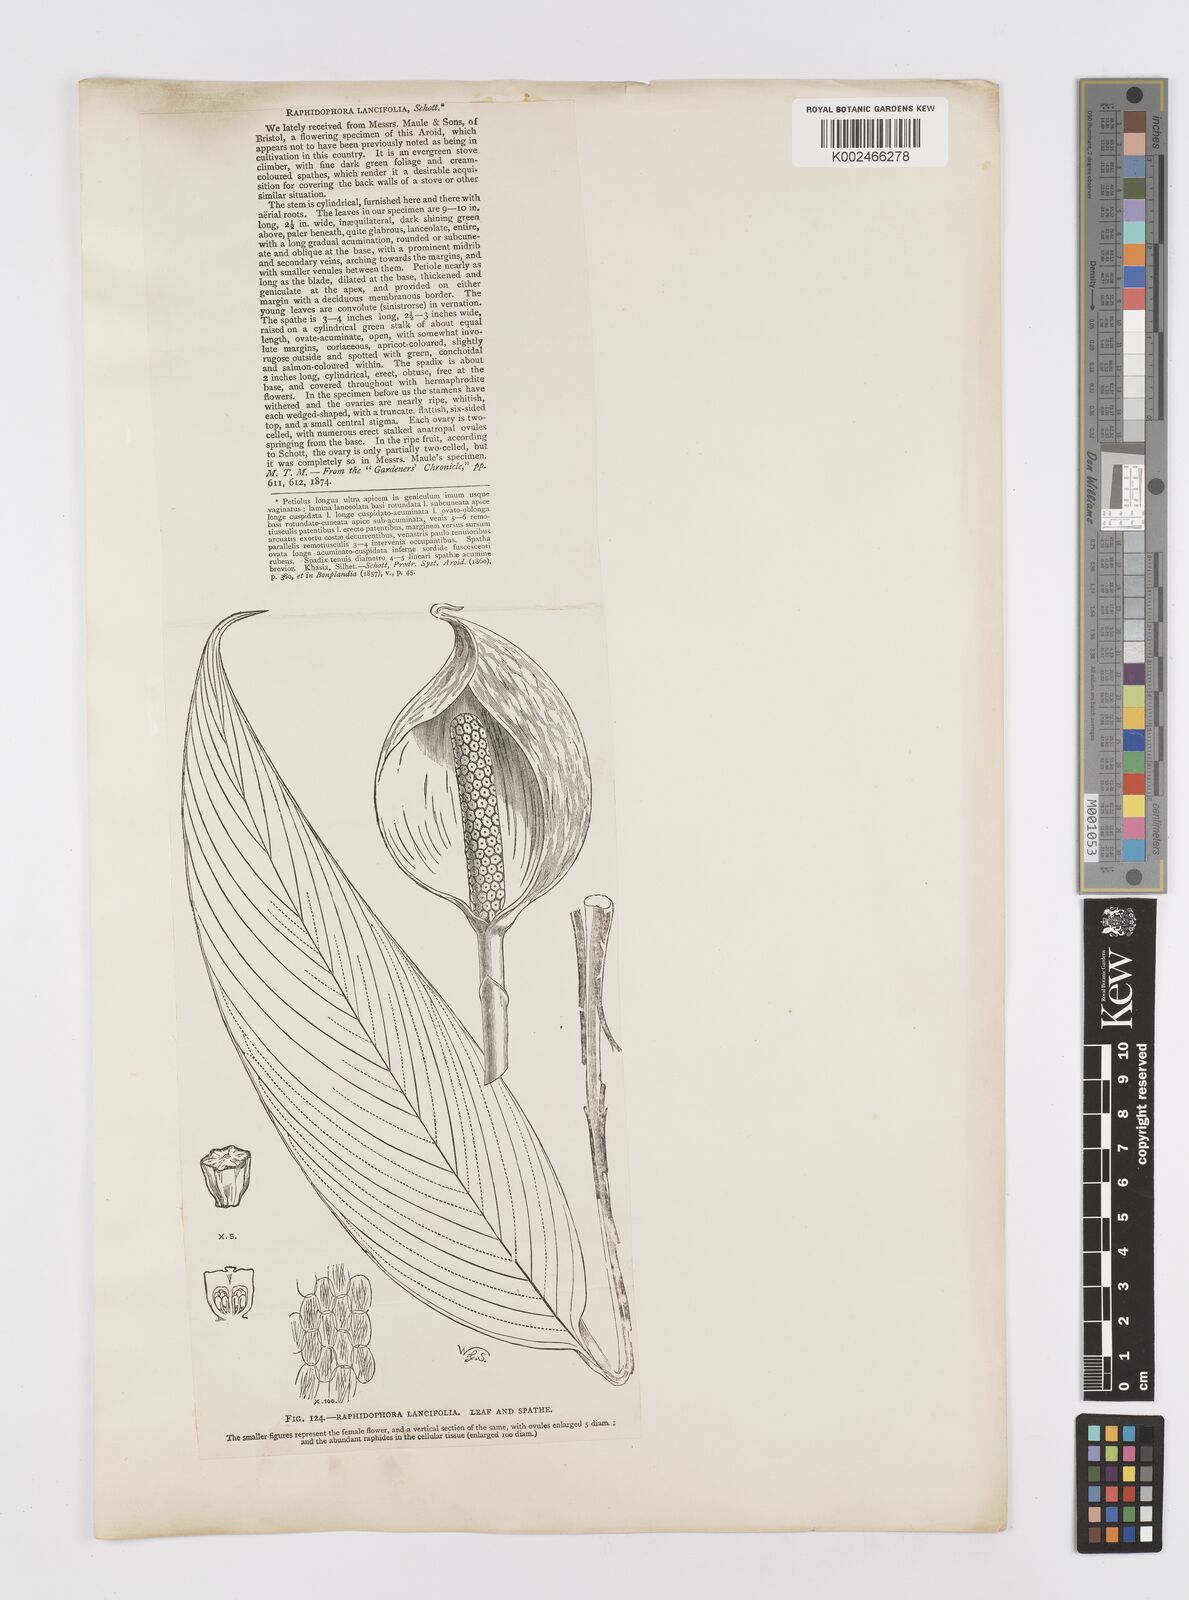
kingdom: Plantae
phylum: Tracheophyta
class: Liliopsida
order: Alismatales
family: Araceae
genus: Rhaphidophora
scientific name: Rhaphidophora peepla
